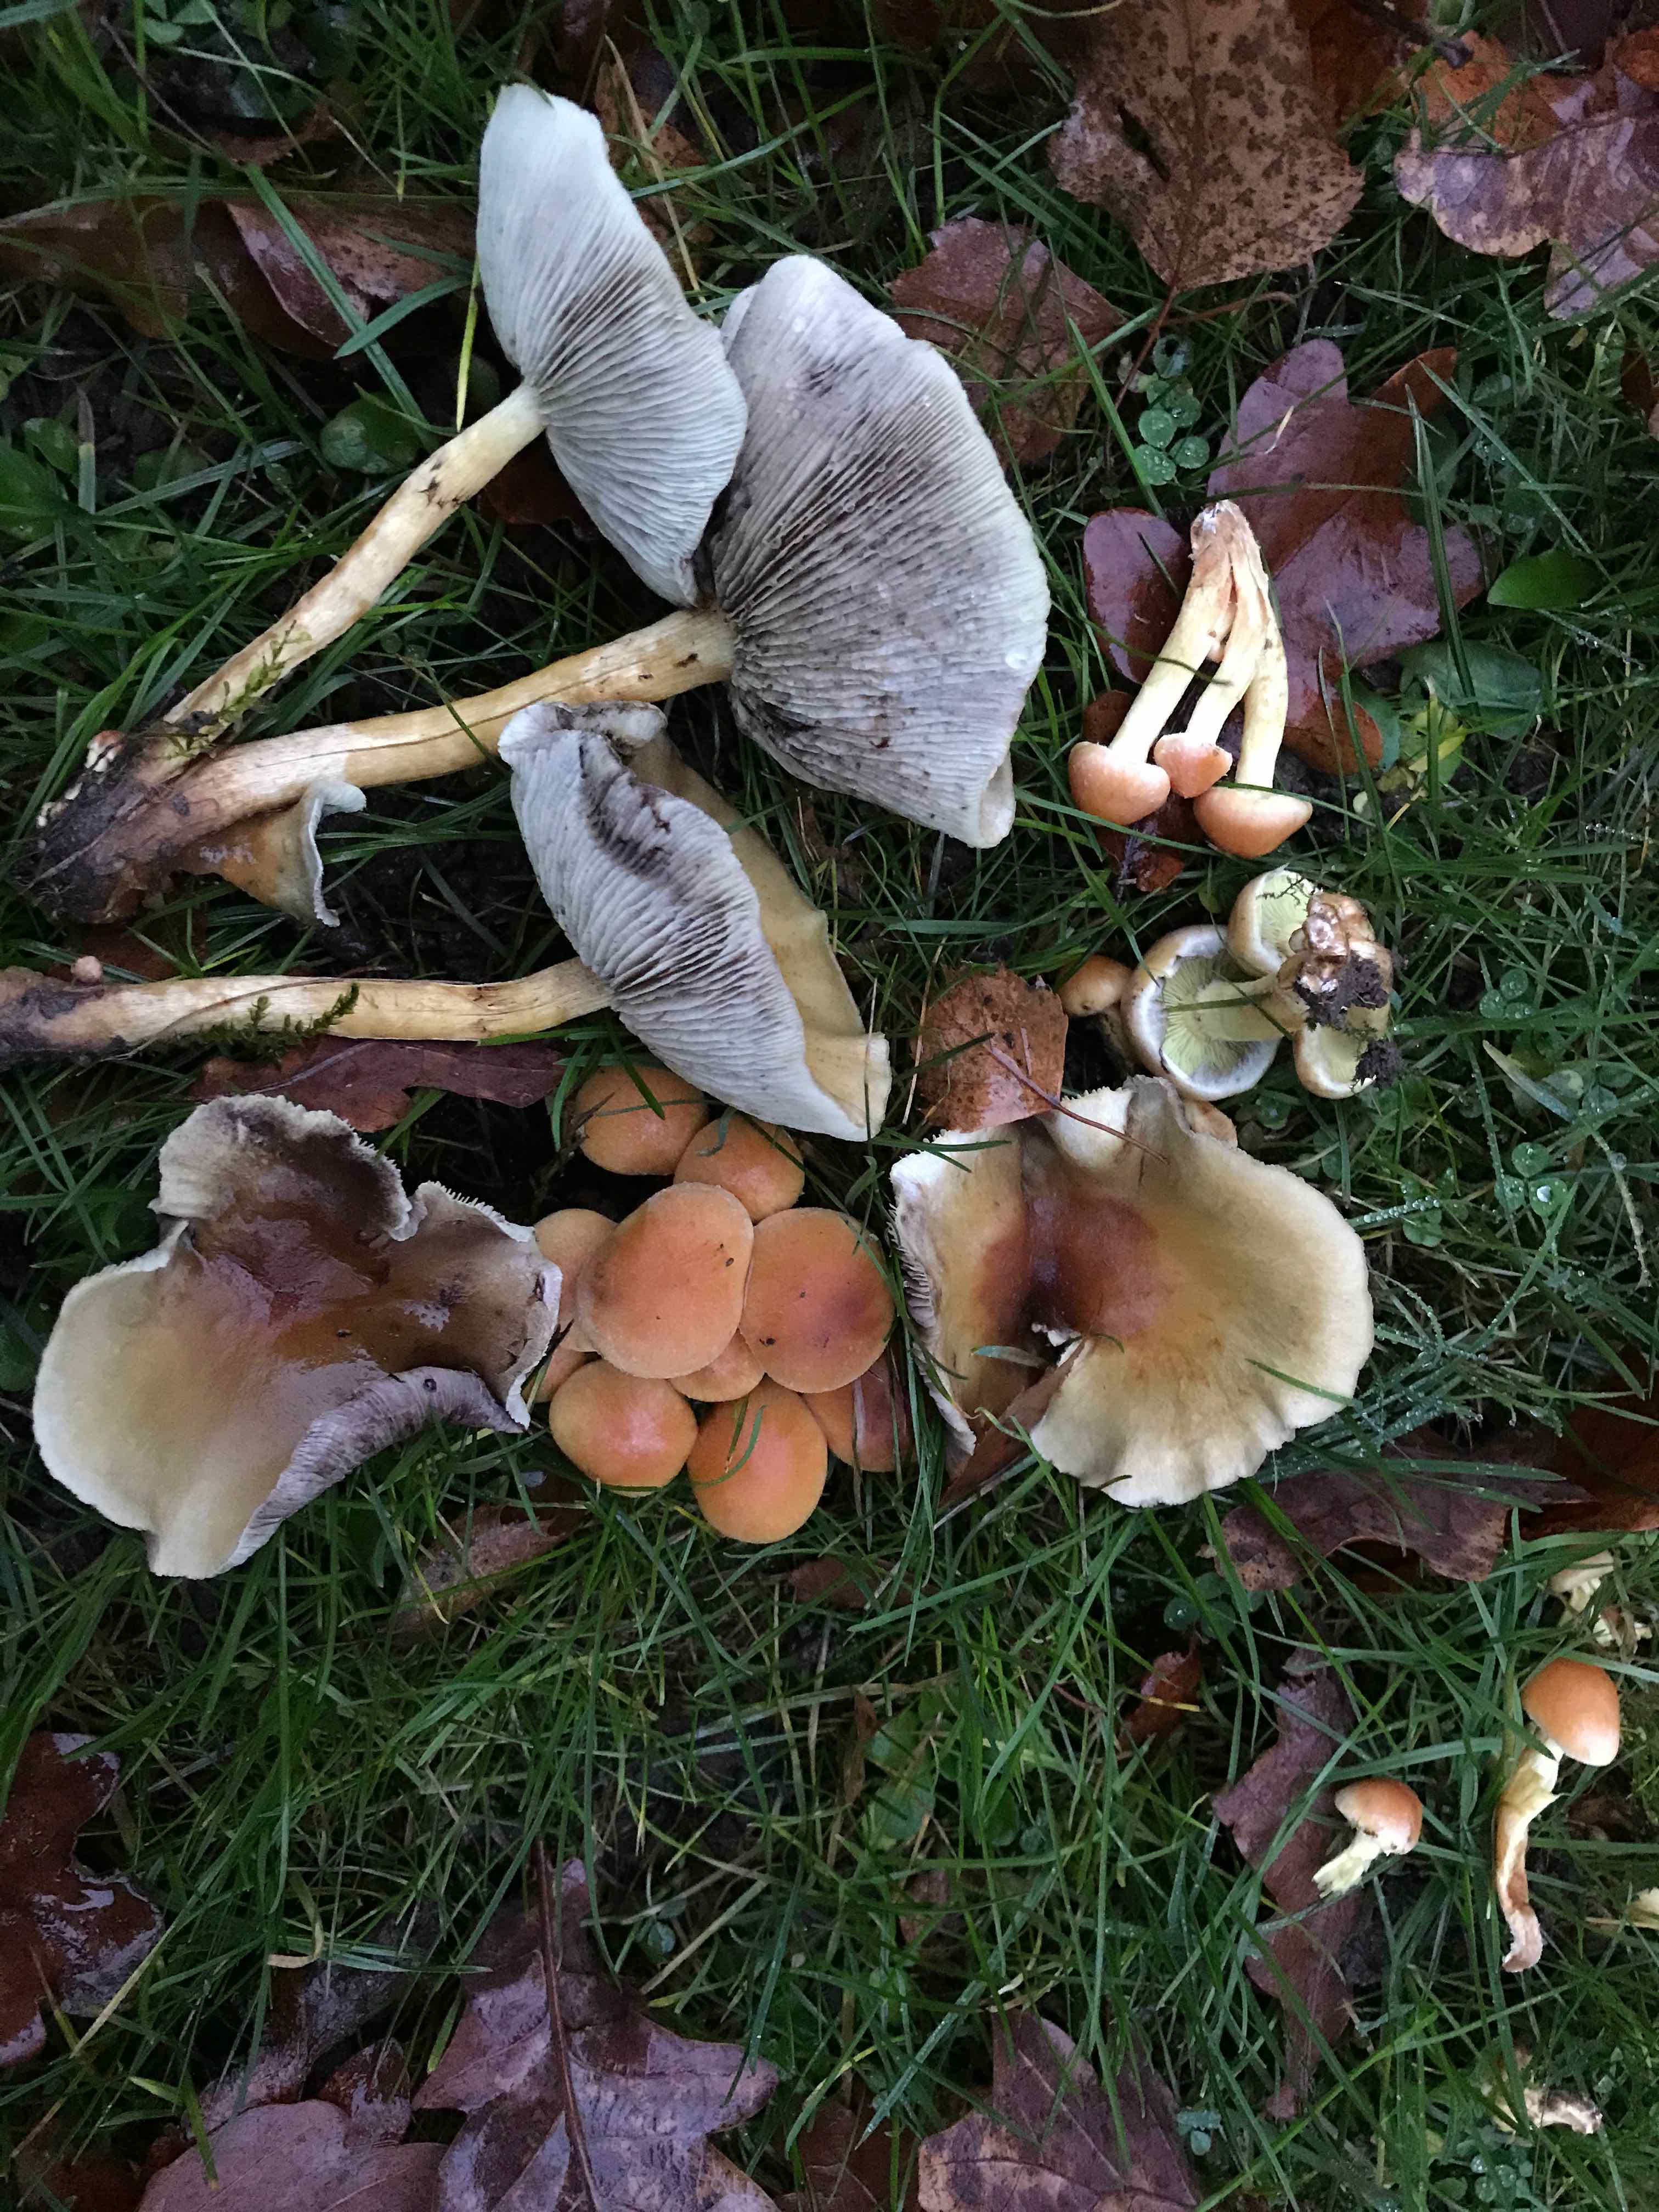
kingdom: Fungi
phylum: Basidiomycota
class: Agaricomycetes
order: Agaricales
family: Strophariaceae
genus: Hypholoma
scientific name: Hypholoma fasciculare
